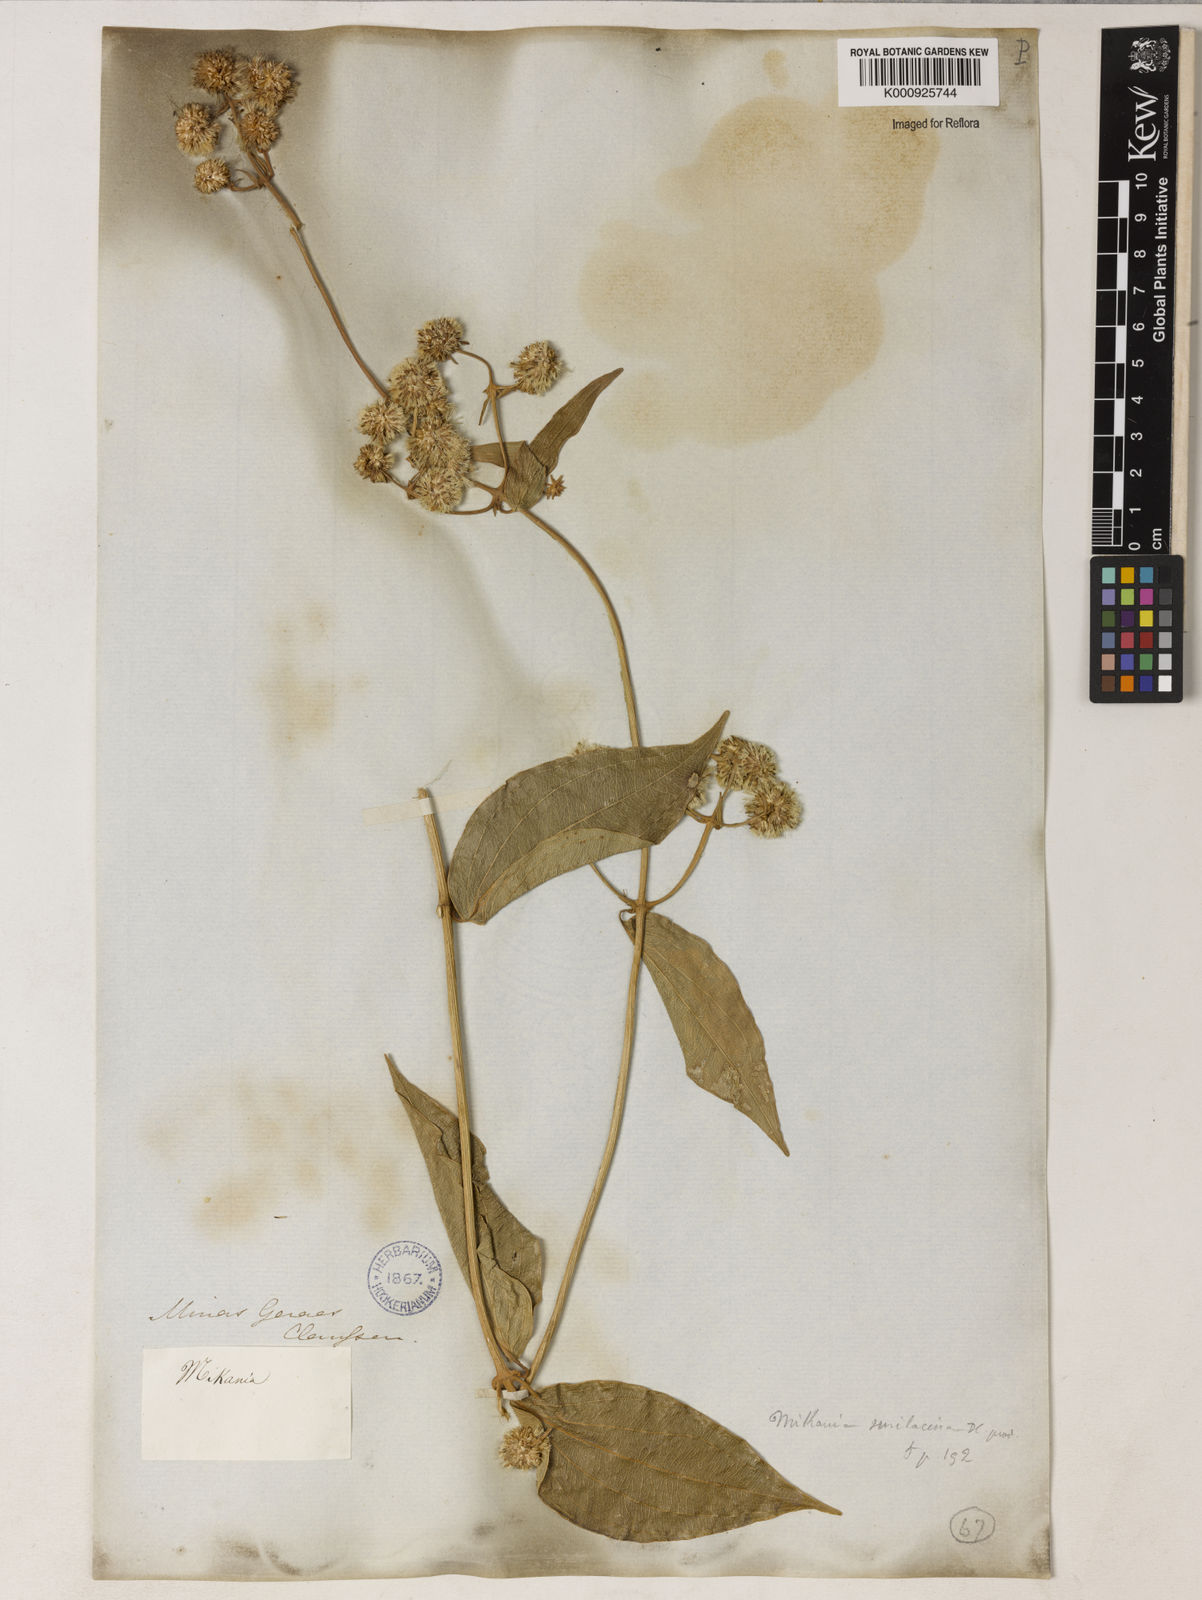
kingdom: Plantae
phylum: Tracheophyta
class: Magnoliopsida
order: Asterales
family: Asteraceae
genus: Mikania
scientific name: Mikania smilacina
